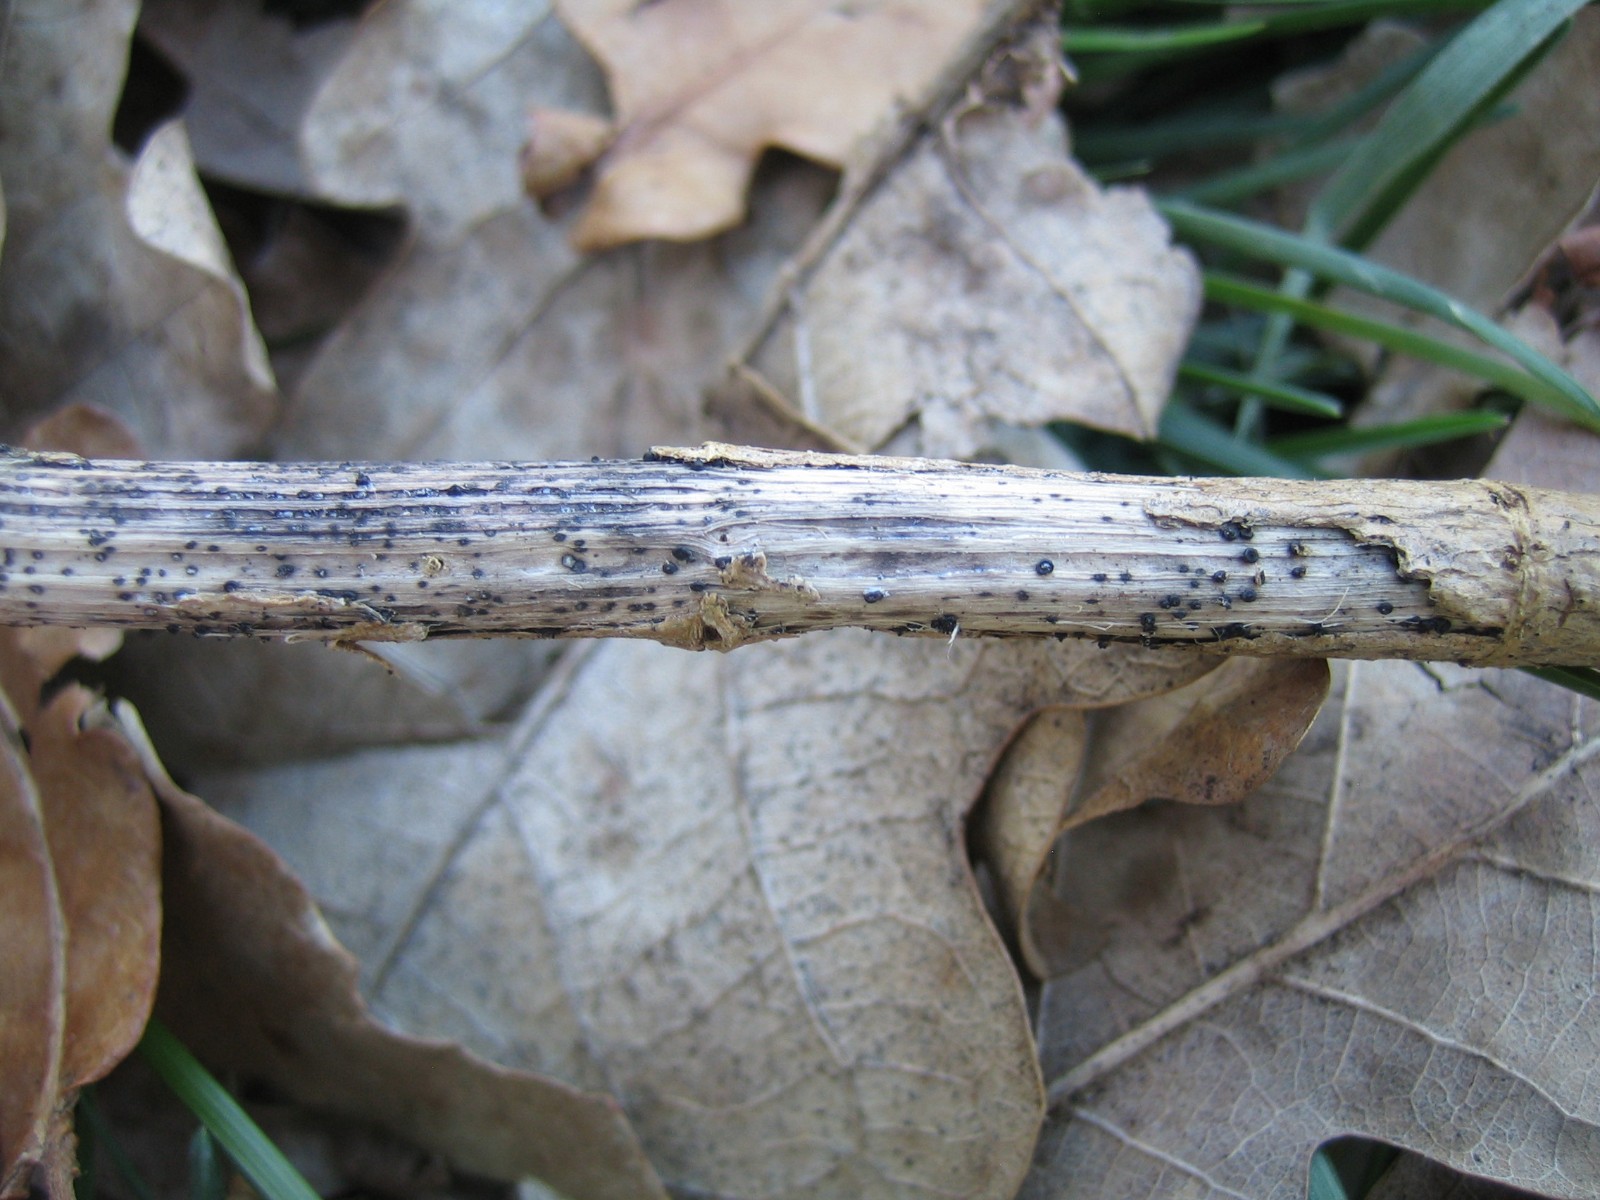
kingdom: Fungi
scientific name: Fungi
